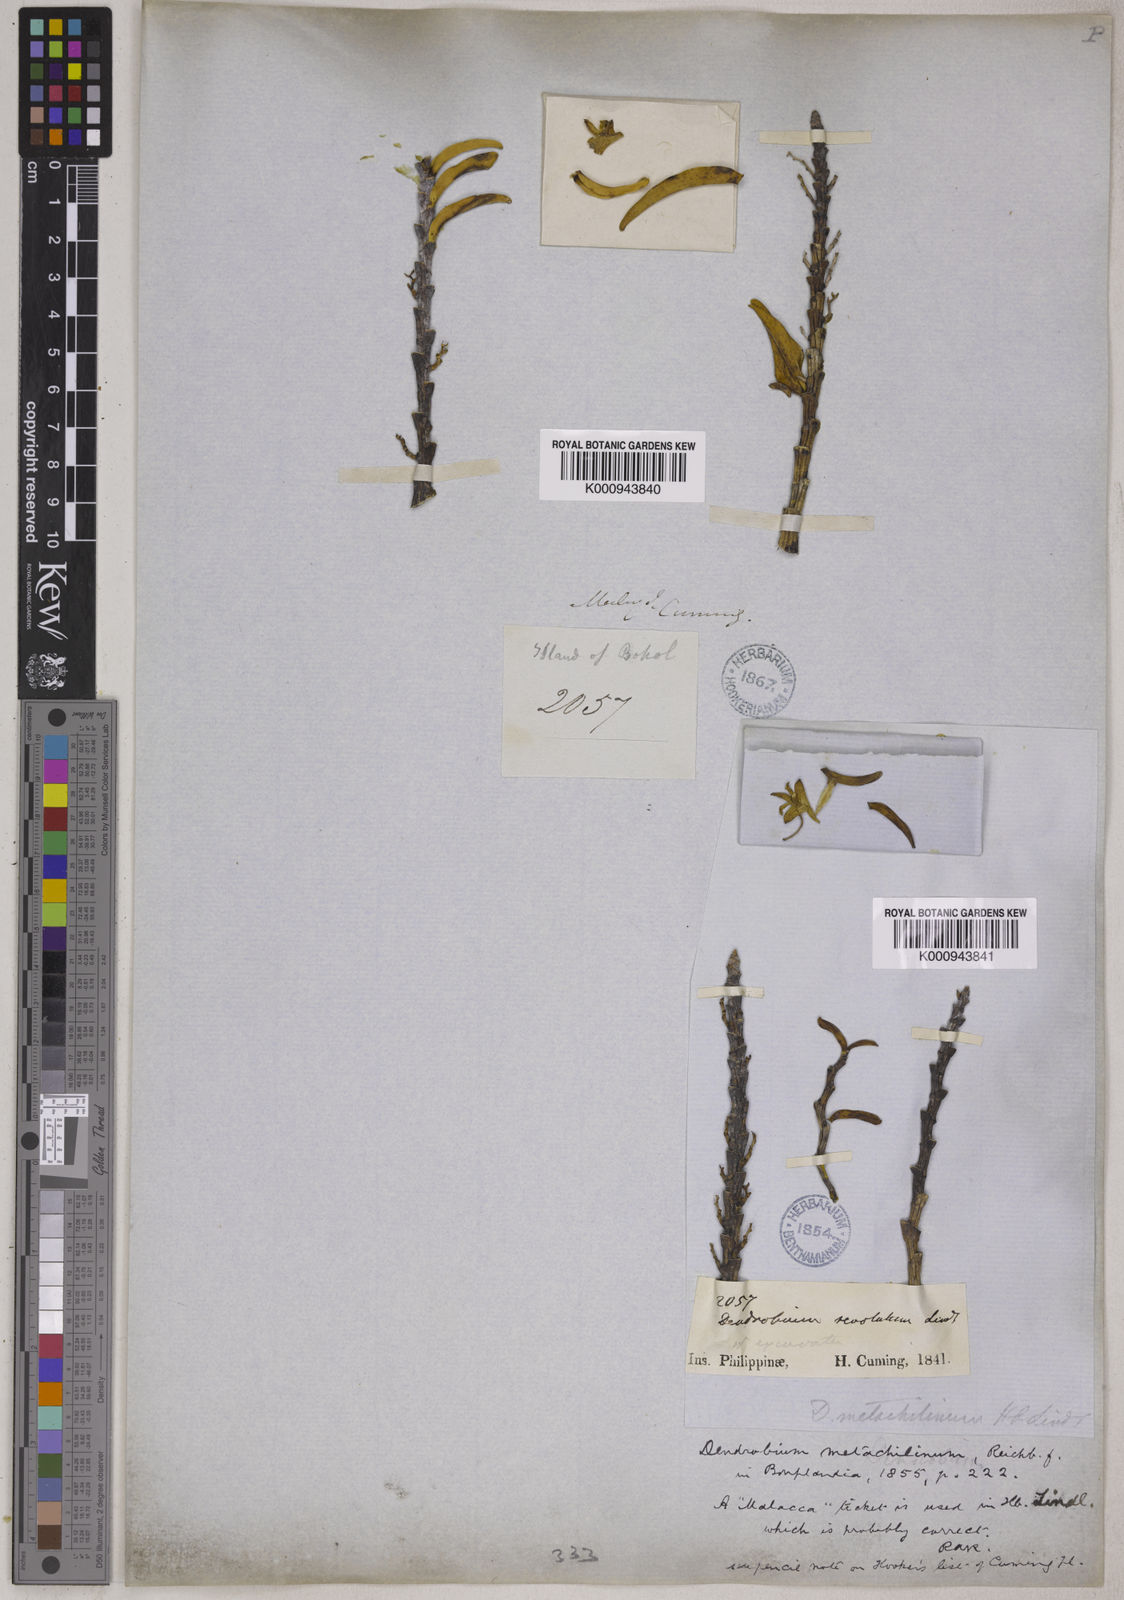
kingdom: Plantae
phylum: Tracheophyta
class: Liliopsida
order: Asparagales
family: Orchidaceae
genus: Dendrobium
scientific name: Dendrobium metachilinum
